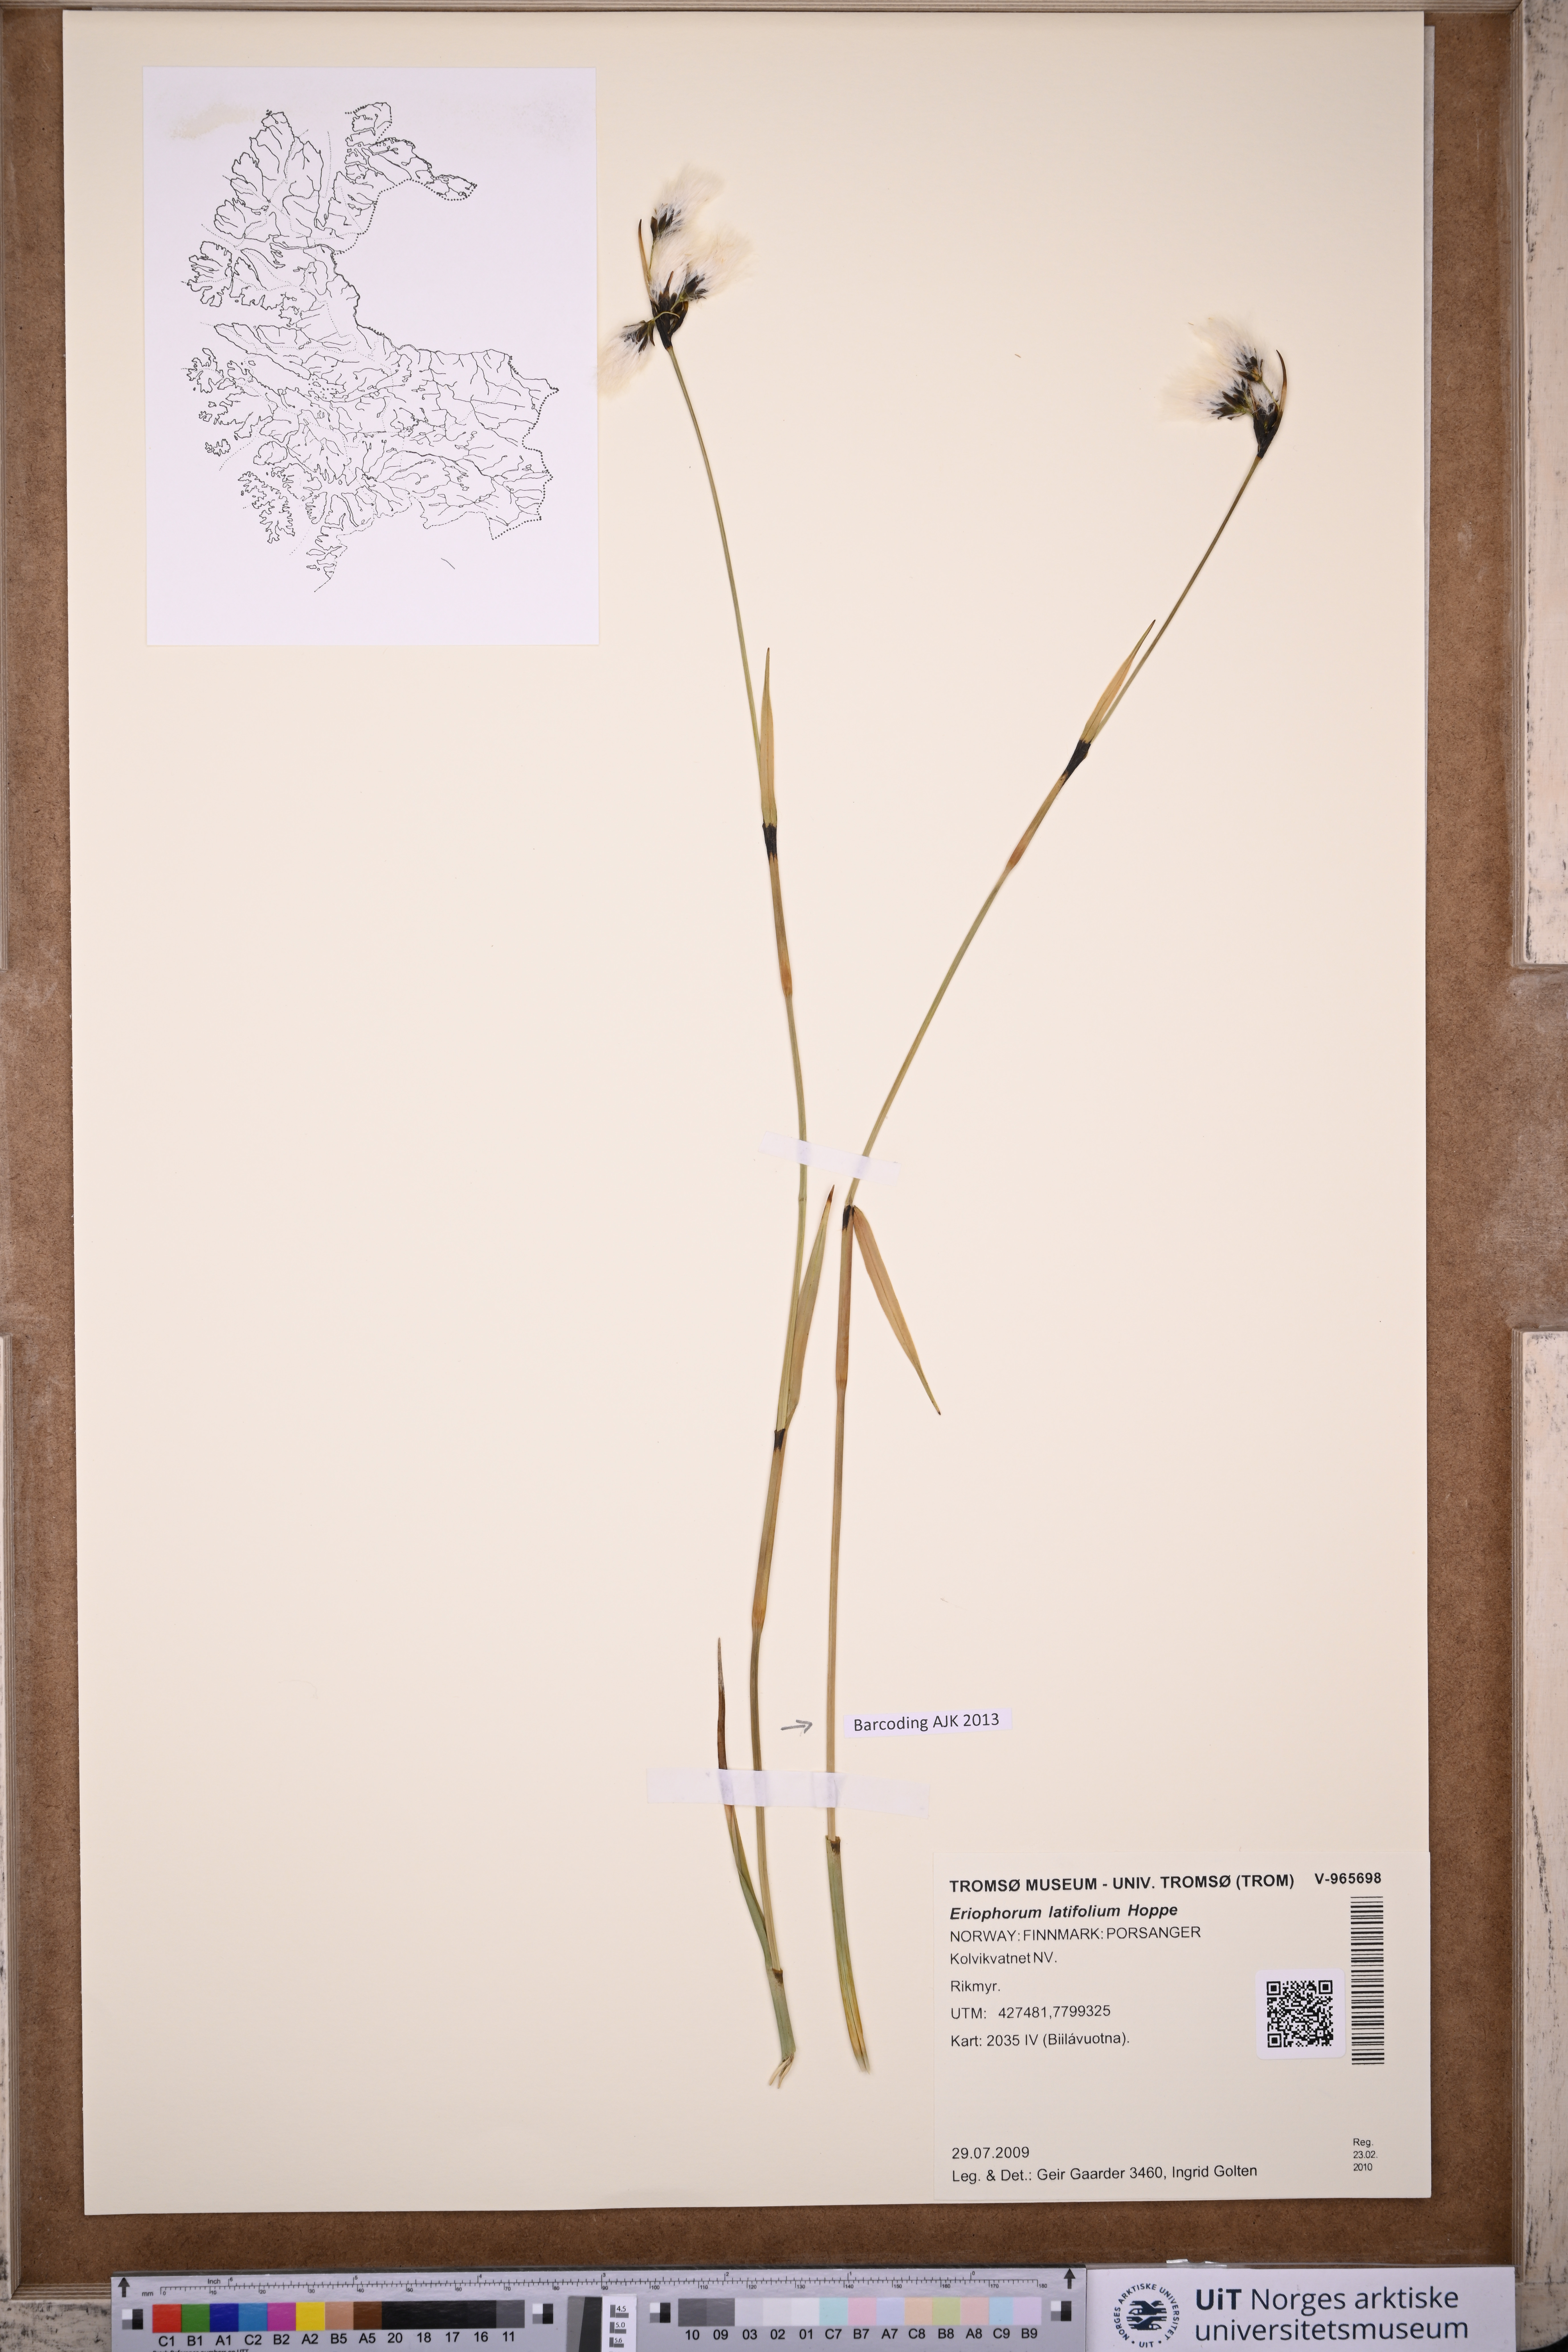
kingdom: Plantae
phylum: Tracheophyta
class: Liliopsida
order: Poales
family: Cyperaceae
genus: Eriophorum
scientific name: Eriophorum latifolium
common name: Broad-leaved cottongrass
